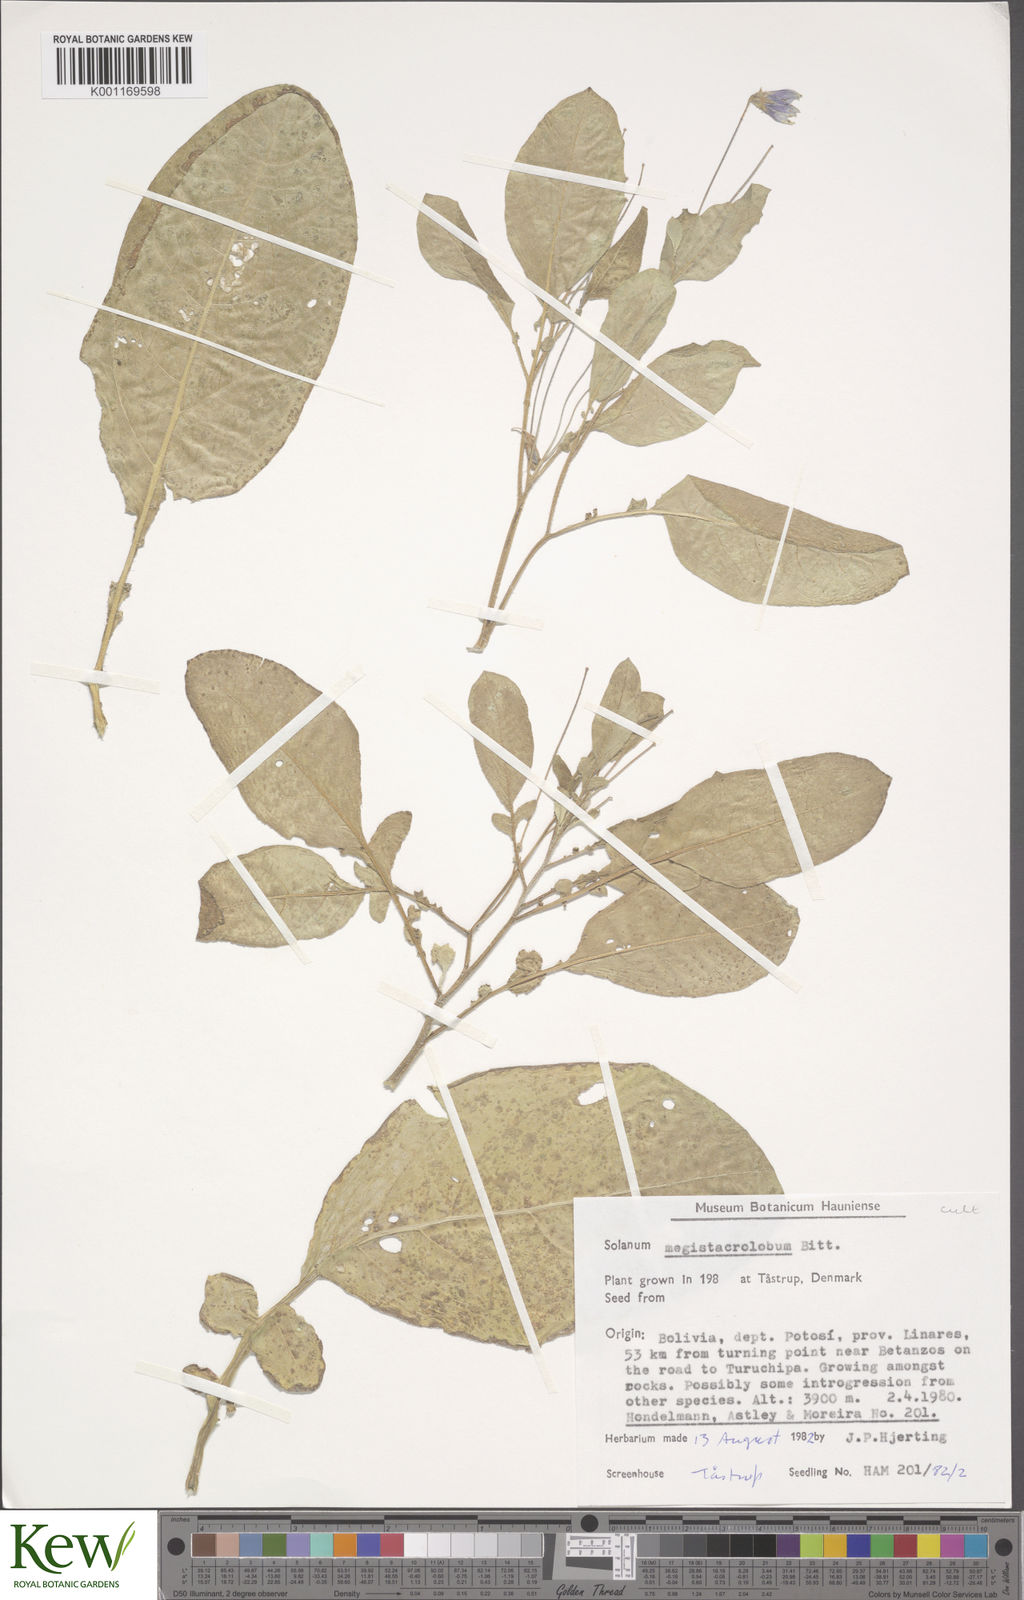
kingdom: Plantae
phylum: Tracheophyta
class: Magnoliopsida
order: Solanales
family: Solanaceae
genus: Solanum
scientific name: Solanum boliviense
